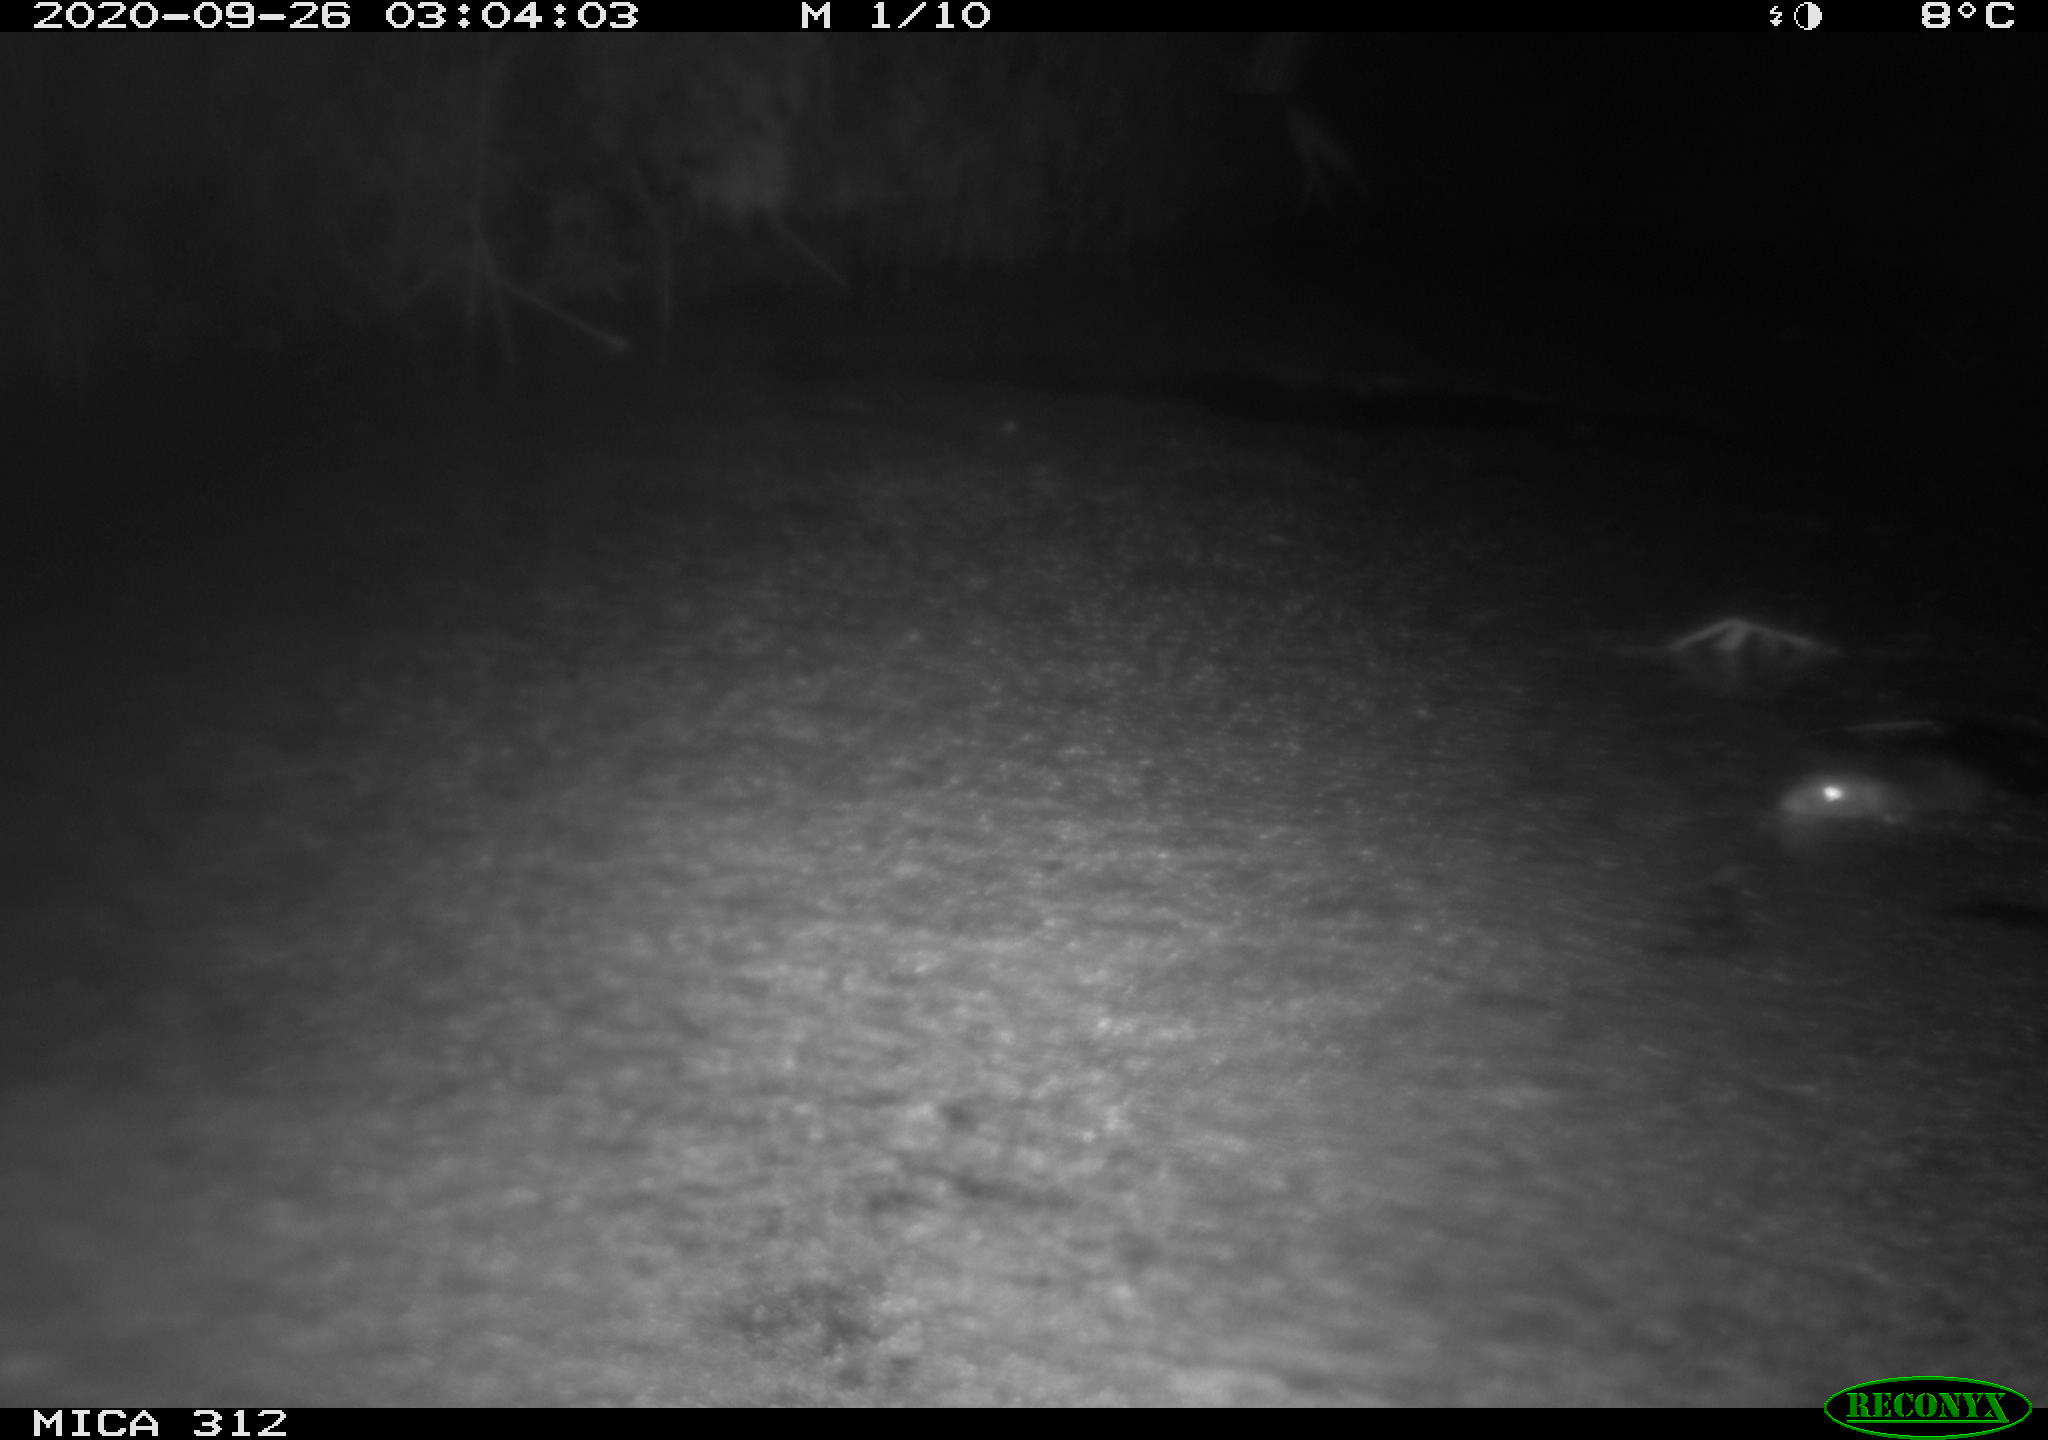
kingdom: Animalia
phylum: Chordata
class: Mammalia
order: Rodentia
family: Muridae
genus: Rattus
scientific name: Rattus norvegicus
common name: Brown rat
